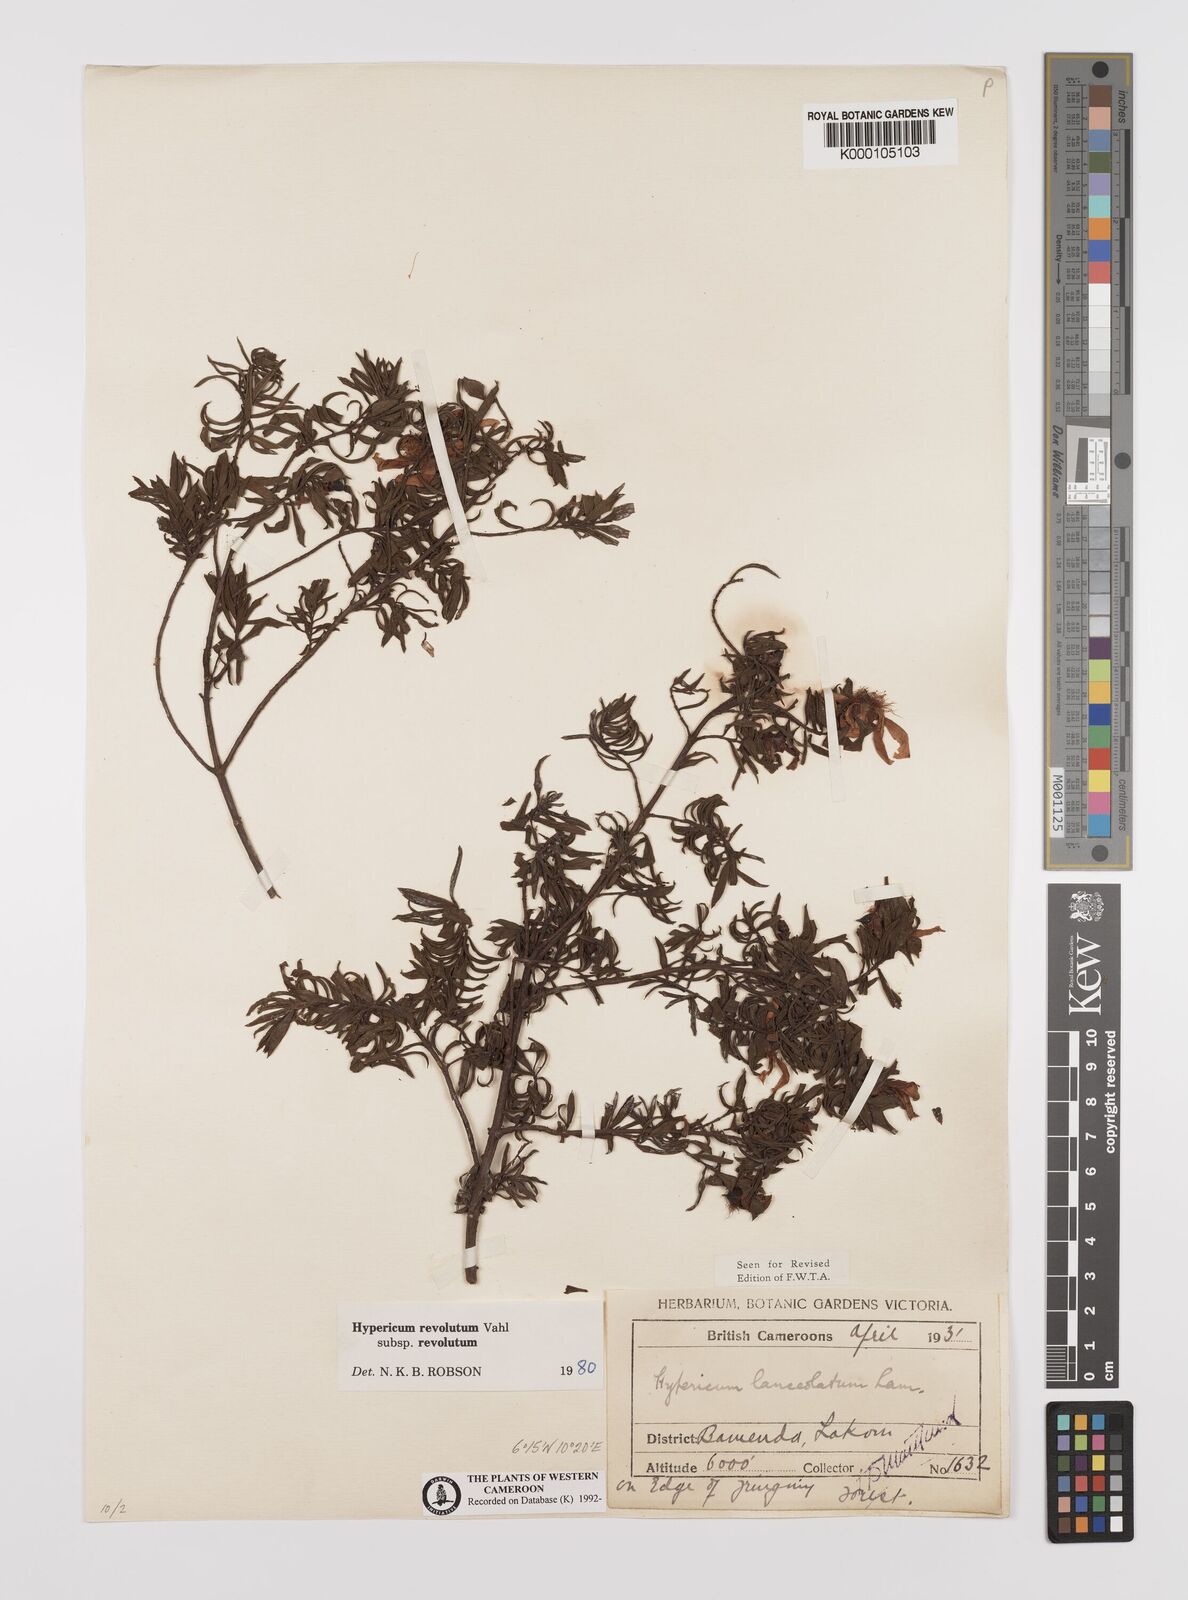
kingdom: Plantae
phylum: Tracheophyta
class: Magnoliopsida
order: Malpighiales
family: Hypericaceae
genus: Hypericum
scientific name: Hypericum revolutum
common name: Curry bush
